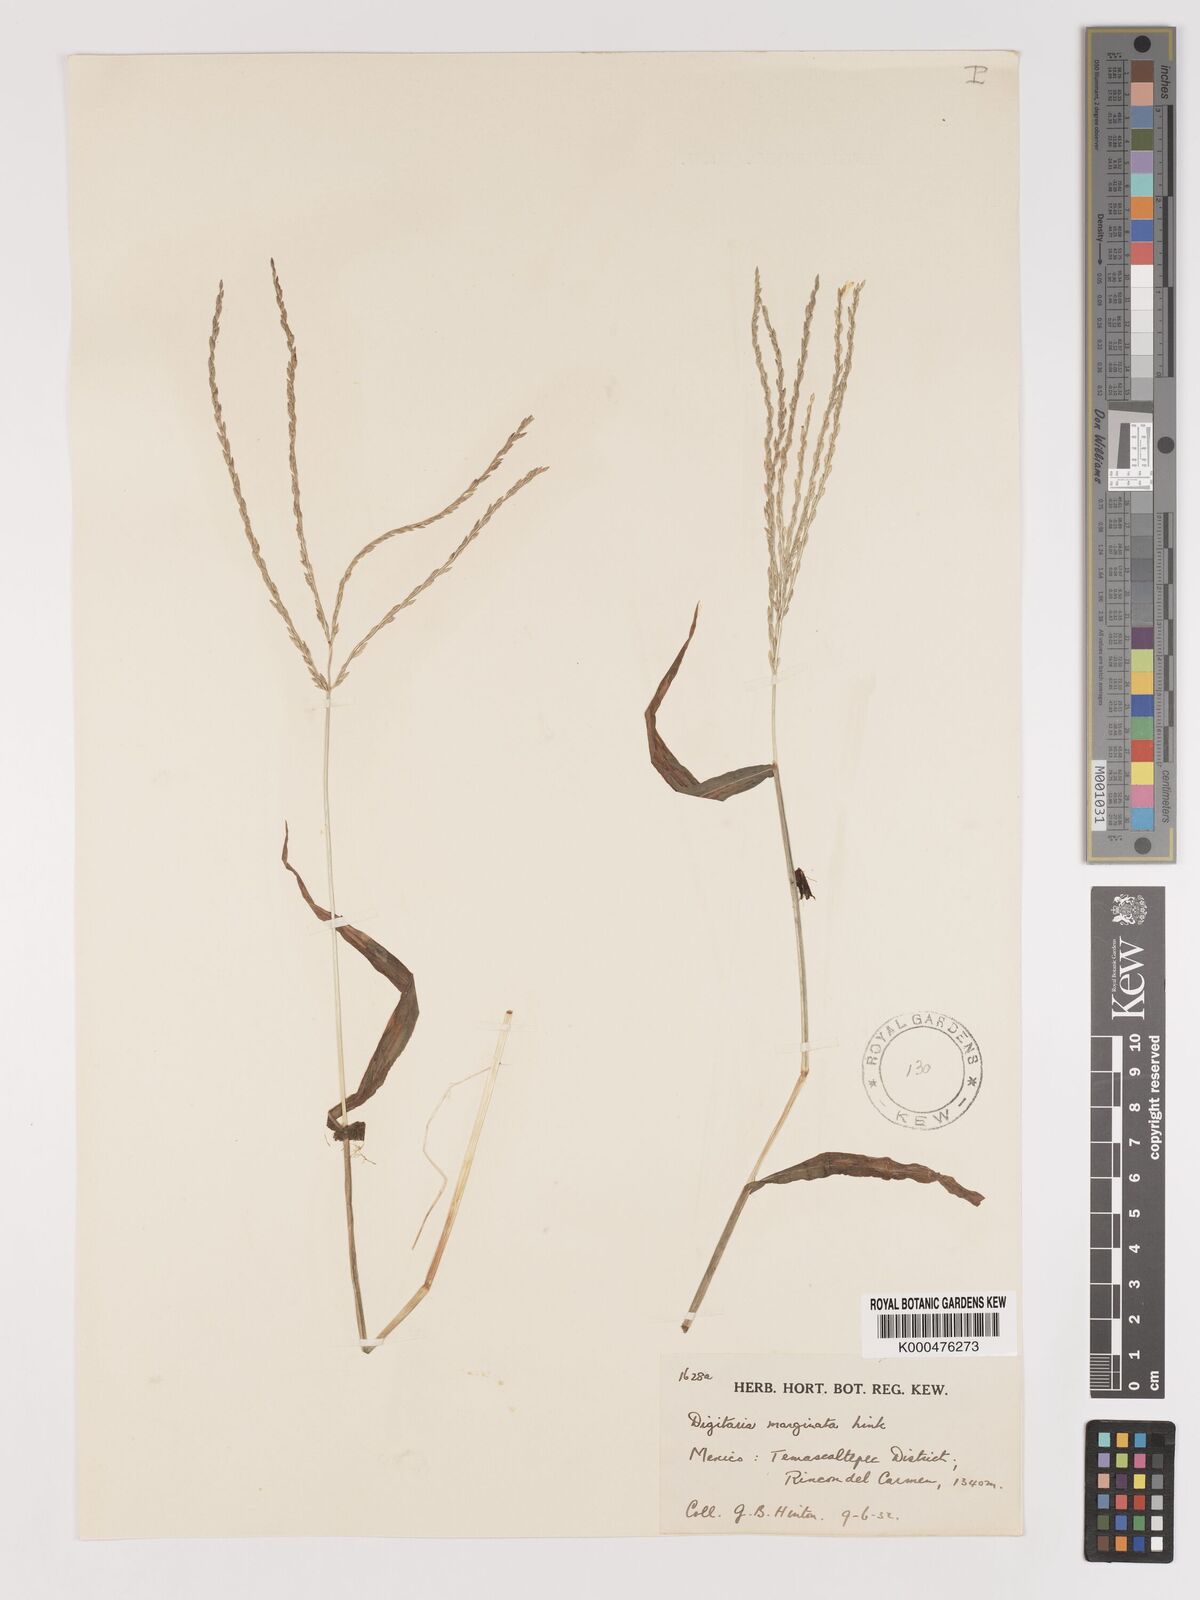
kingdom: Plantae
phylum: Tracheophyta
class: Liliopsida
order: Poales
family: Poaceae
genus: Digitaria
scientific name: Digitaria ciliaris
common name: Tropical finger-grass
